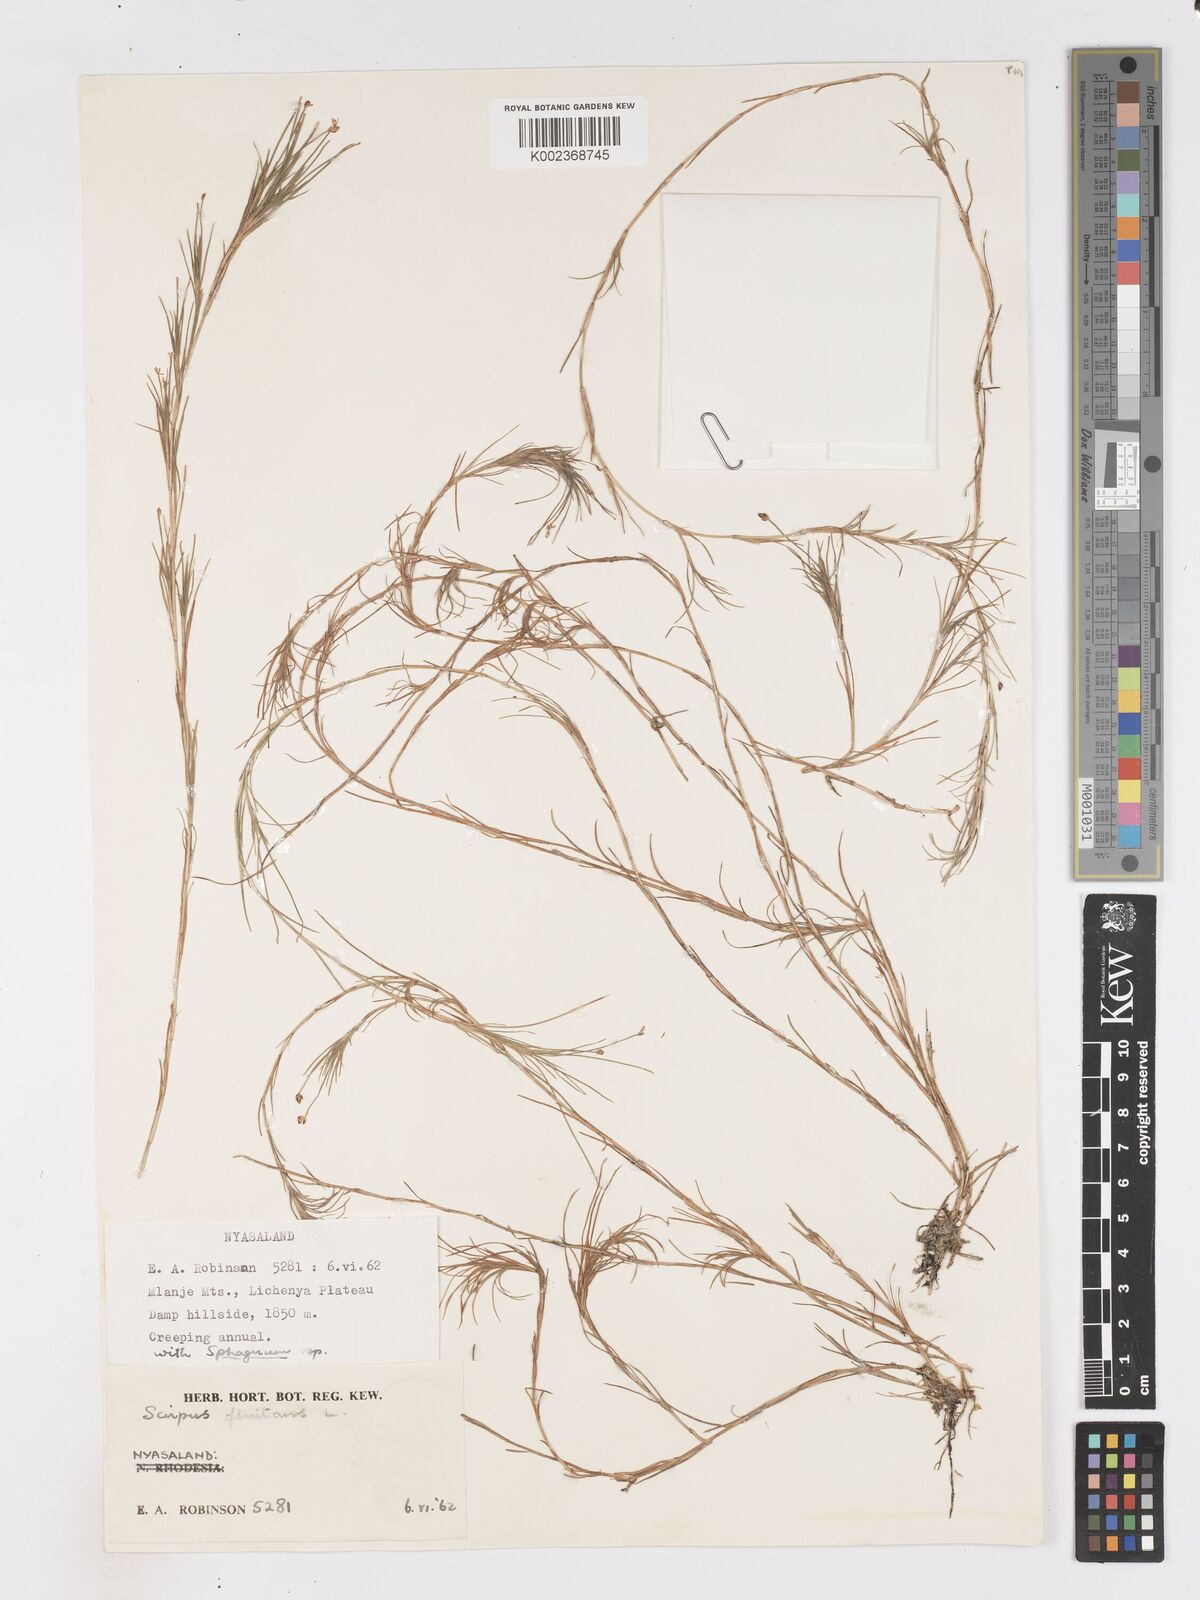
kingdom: Plantae
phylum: Tracheophyta
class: Liliopsida
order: Poales
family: Cyperaceae
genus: Isolepis
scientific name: Isolepis fluitans
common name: Floating club-rush
